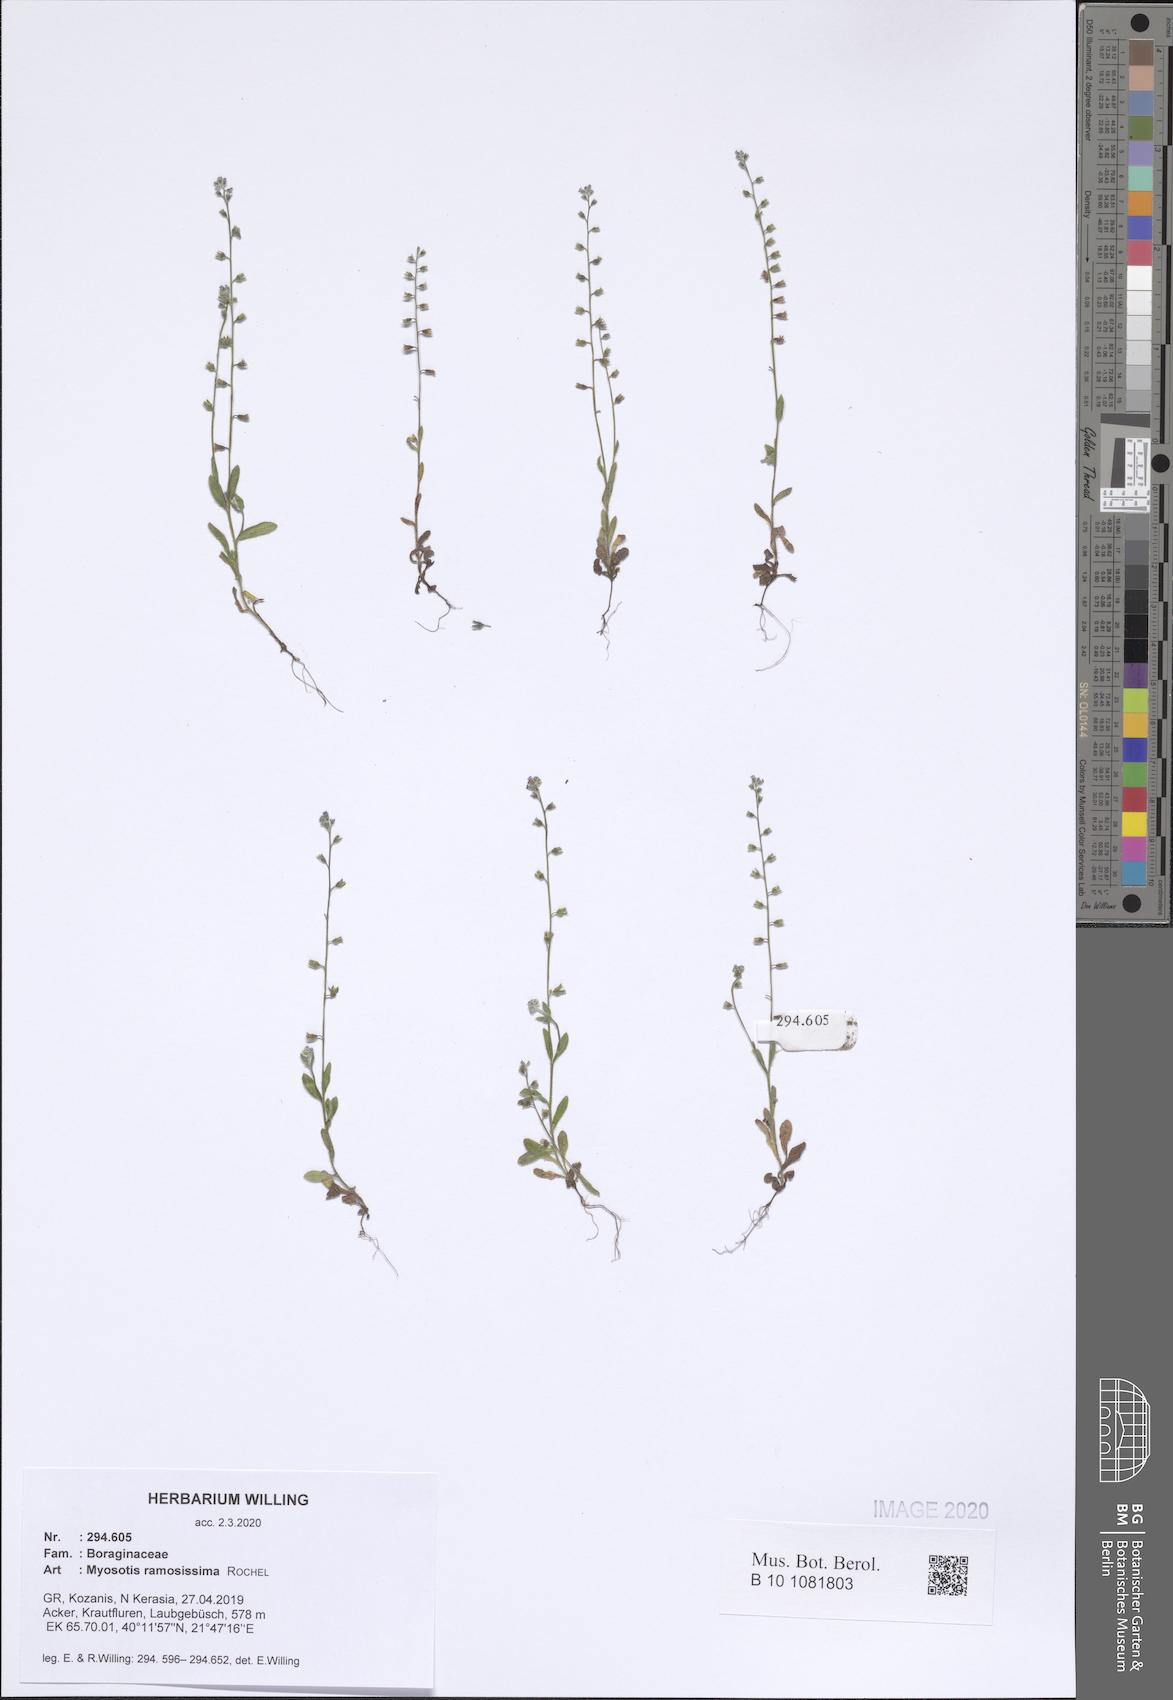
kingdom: Plantae
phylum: Tracheophyta
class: Magnoliopsida
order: Boraginales
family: Boraginaceae
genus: Myosotis
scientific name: Myosotis ramosissima
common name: Early forget-me-not
